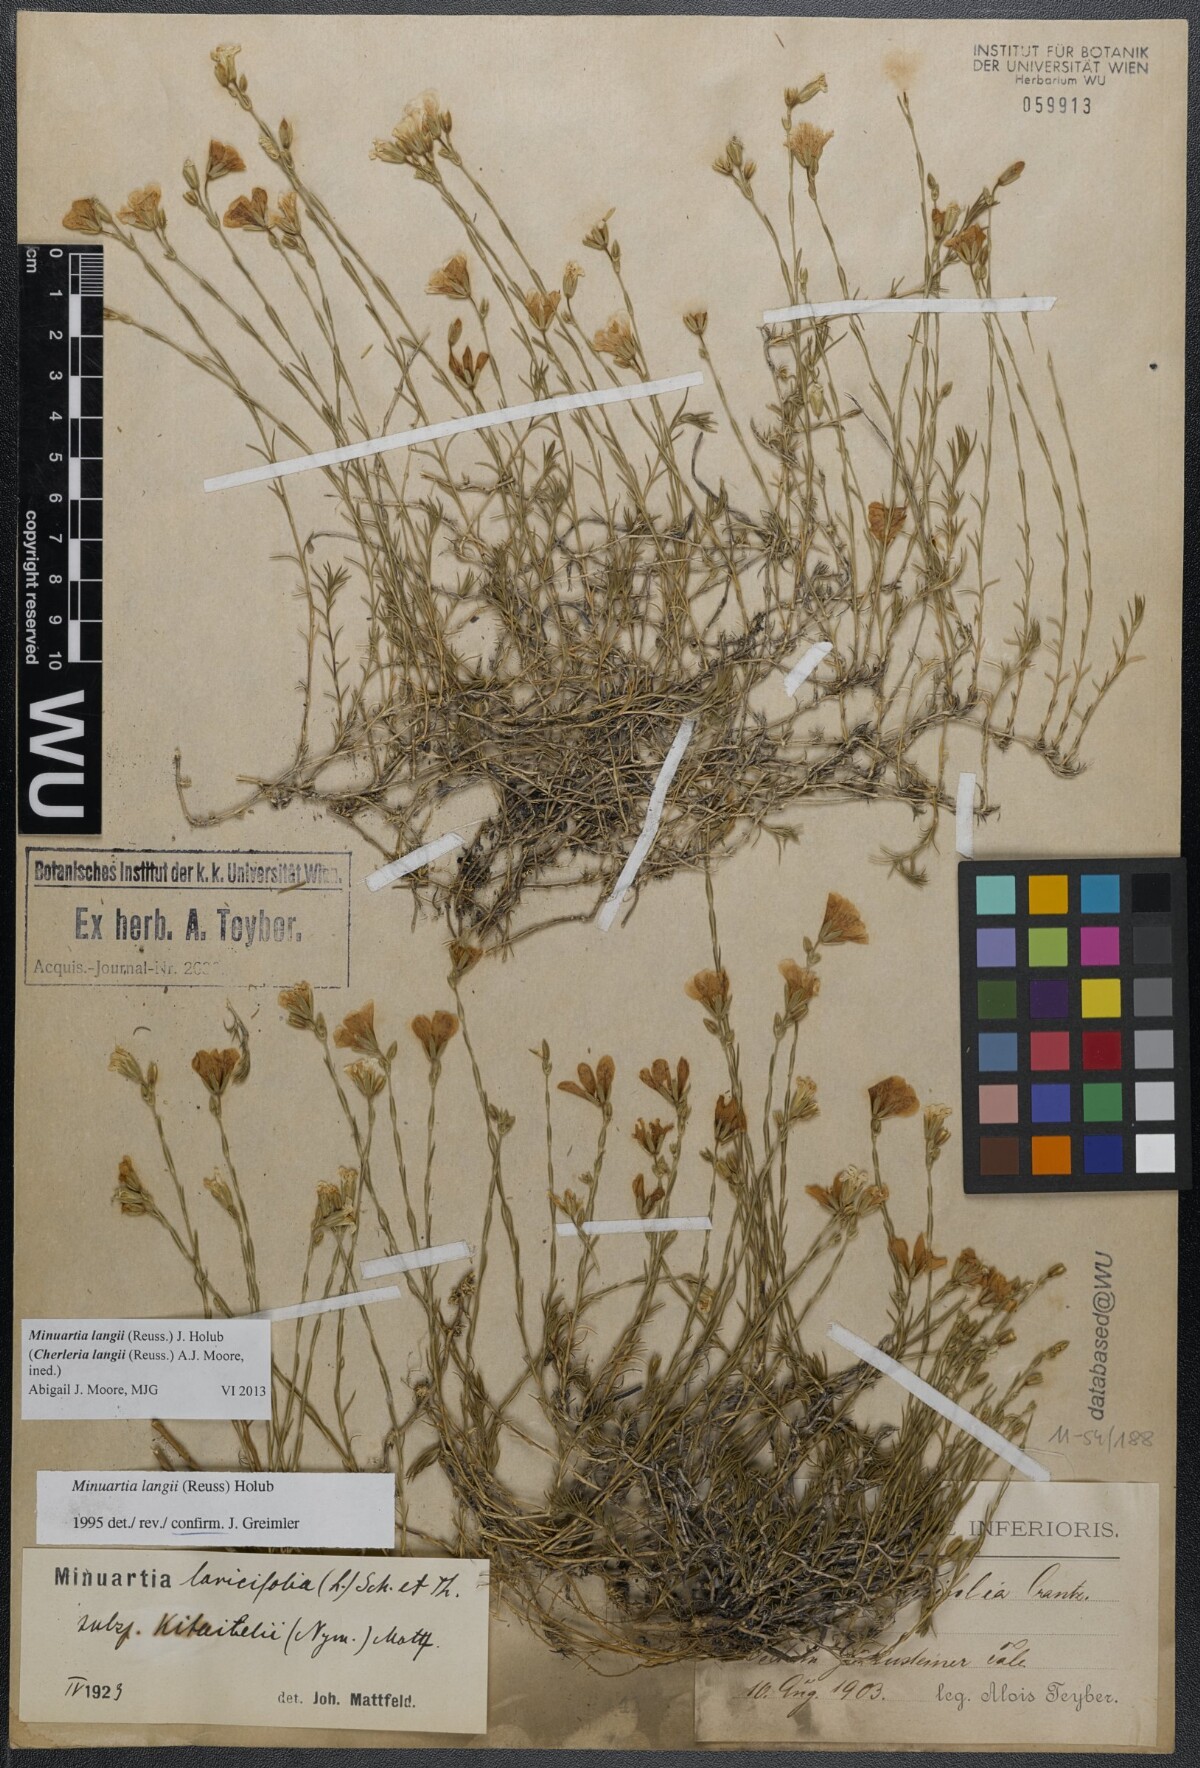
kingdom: Plantae
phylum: Tracheophyta
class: Magnoliopsida
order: Caryophyllales
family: Caryophyllaceae
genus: Cherleria
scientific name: Cherleria langii
